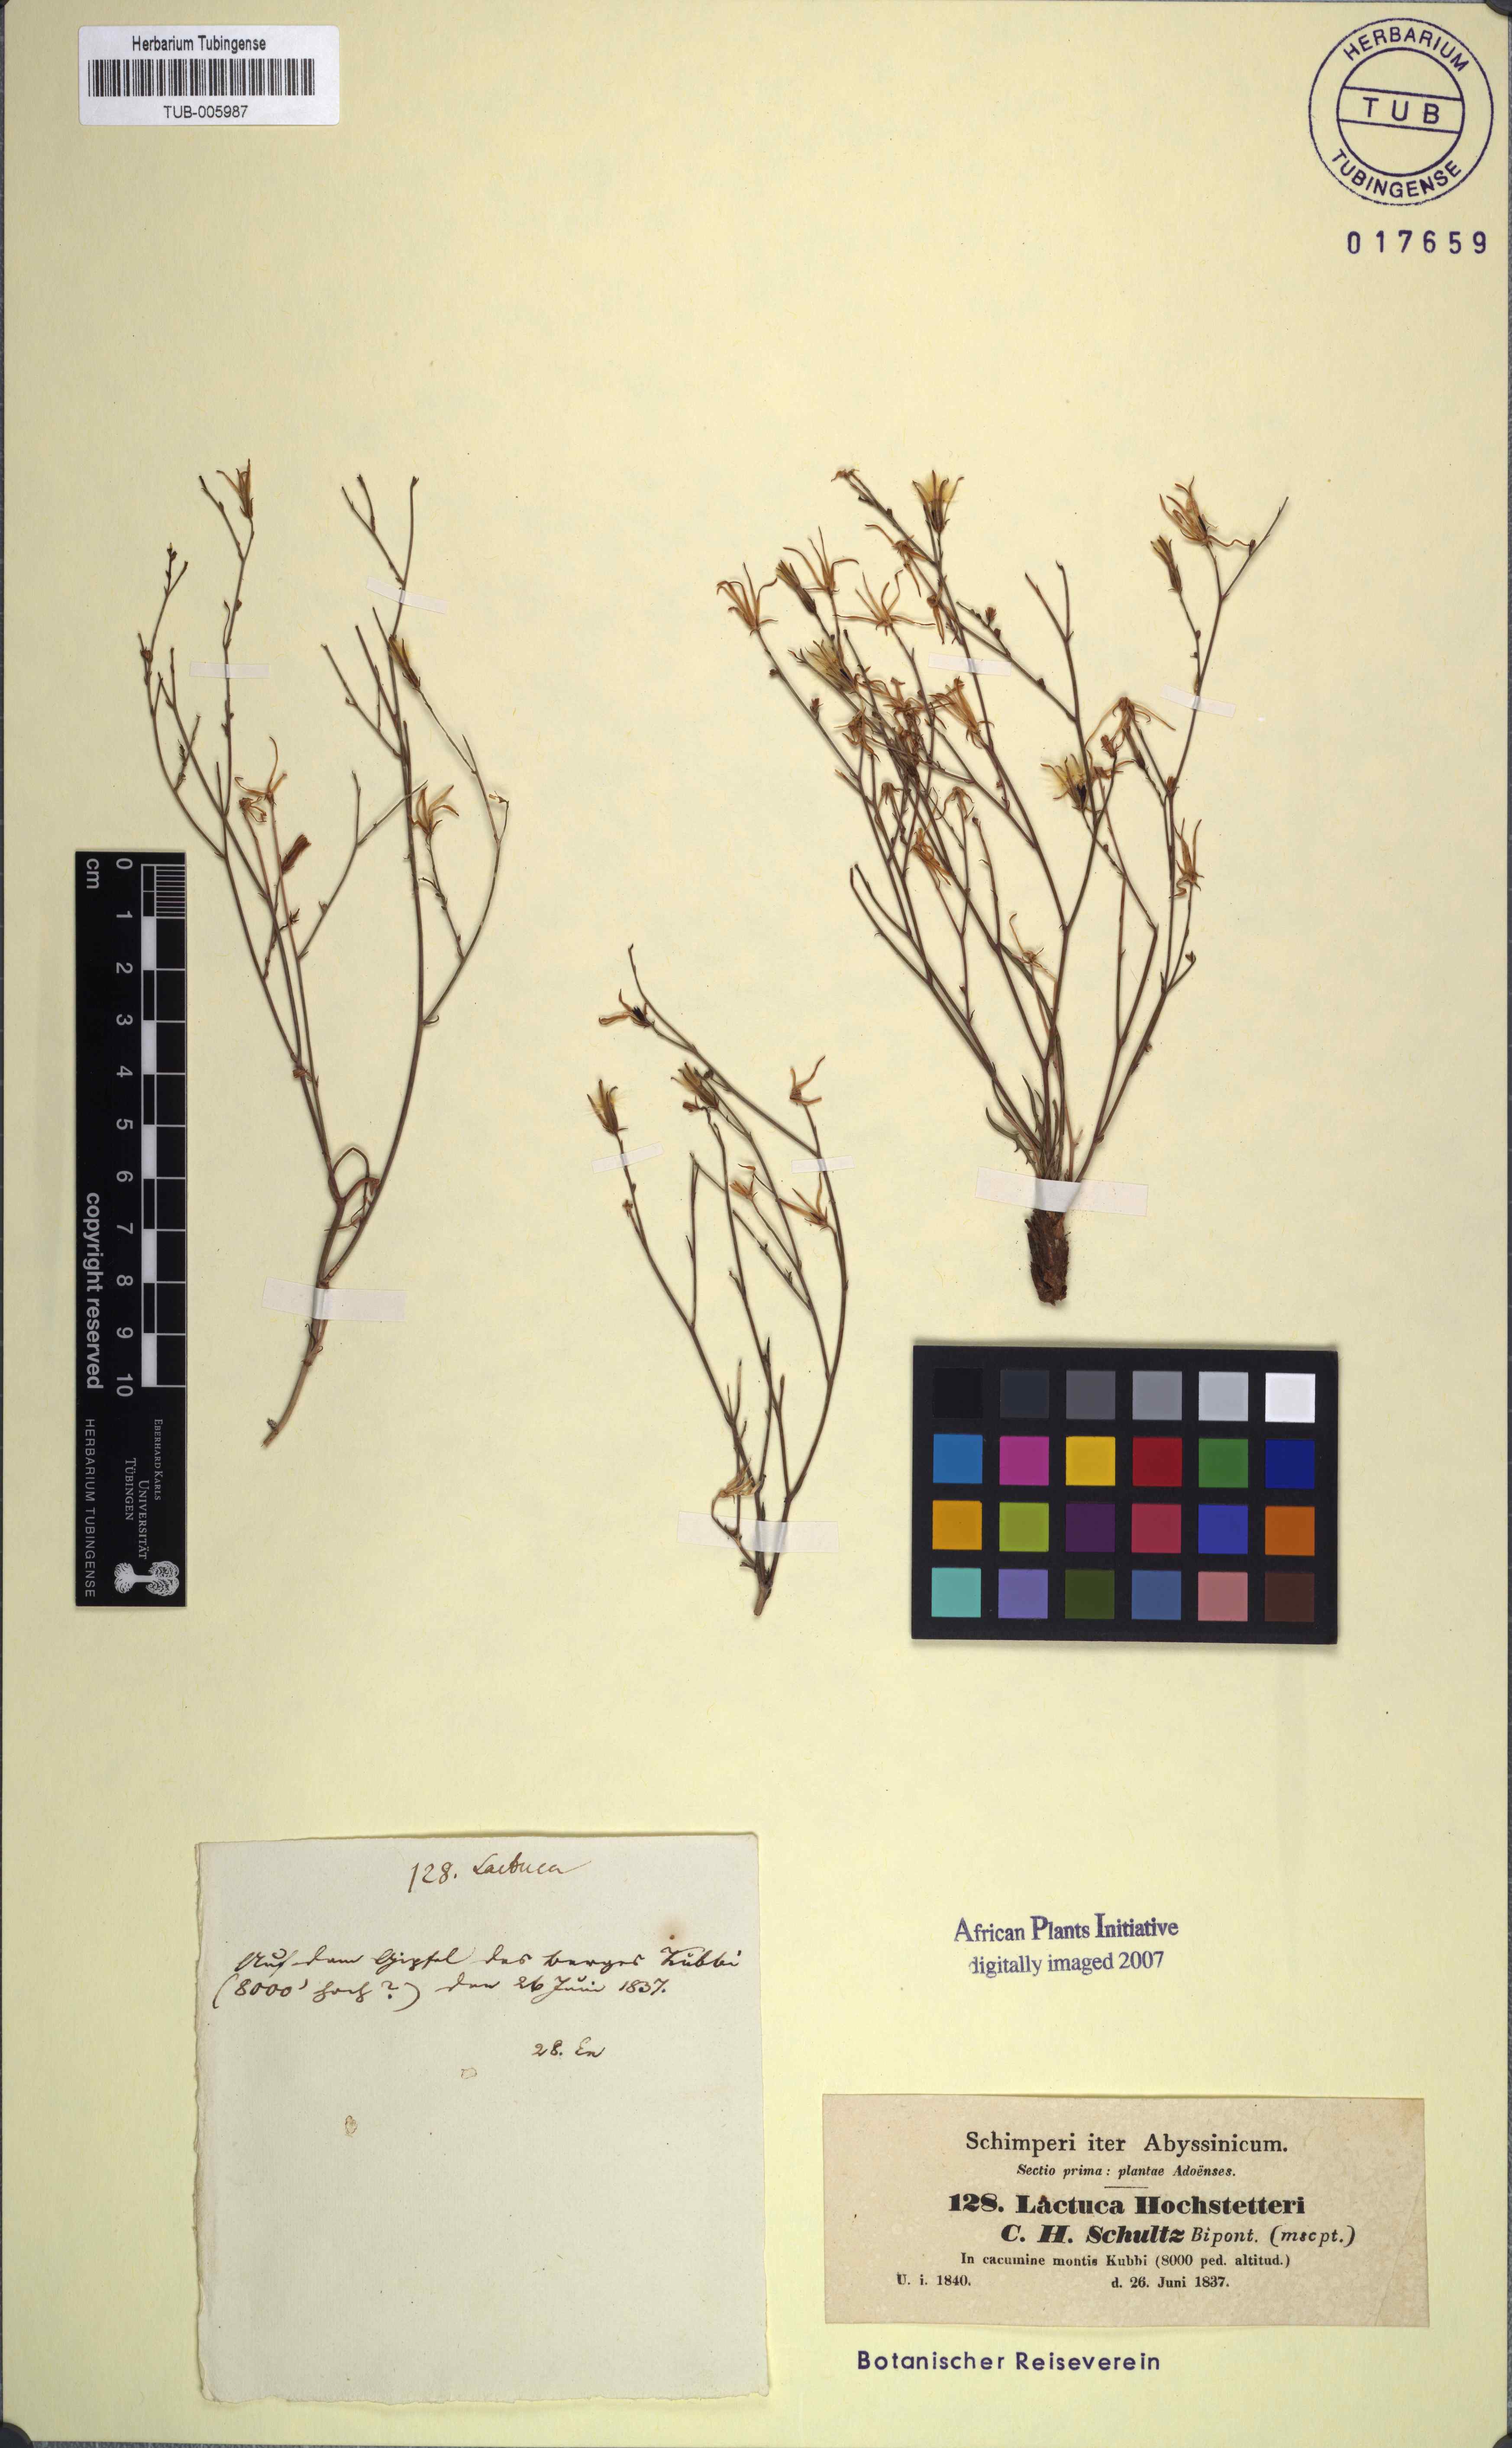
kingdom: Plantae
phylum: Tracheophyta
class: Magnoliopsida
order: Asterales
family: Asteraceae
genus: Lactuca
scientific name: Lactuca inermis
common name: Wild lettuce
